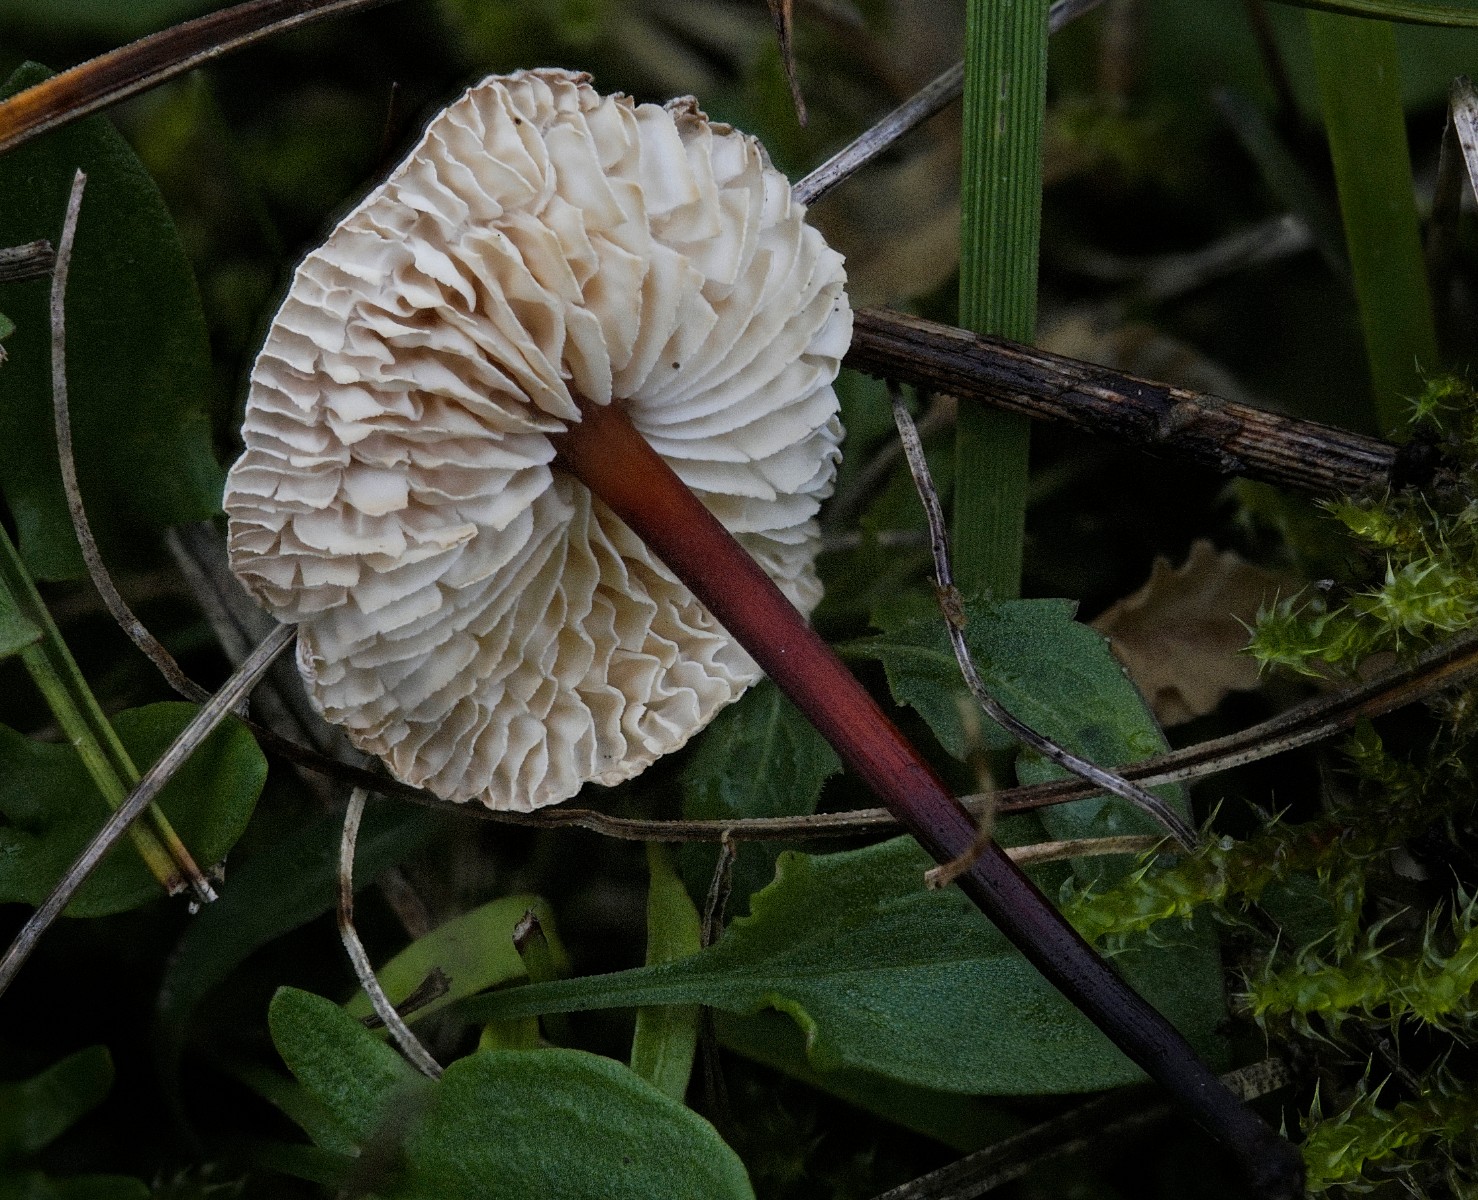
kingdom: Fungi
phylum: Basidiomycota
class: Agaricomycetes
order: Agaricales
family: Omphalotaceae
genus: Mycetinis
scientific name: Mycetinis scorodonius
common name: lille løghat
